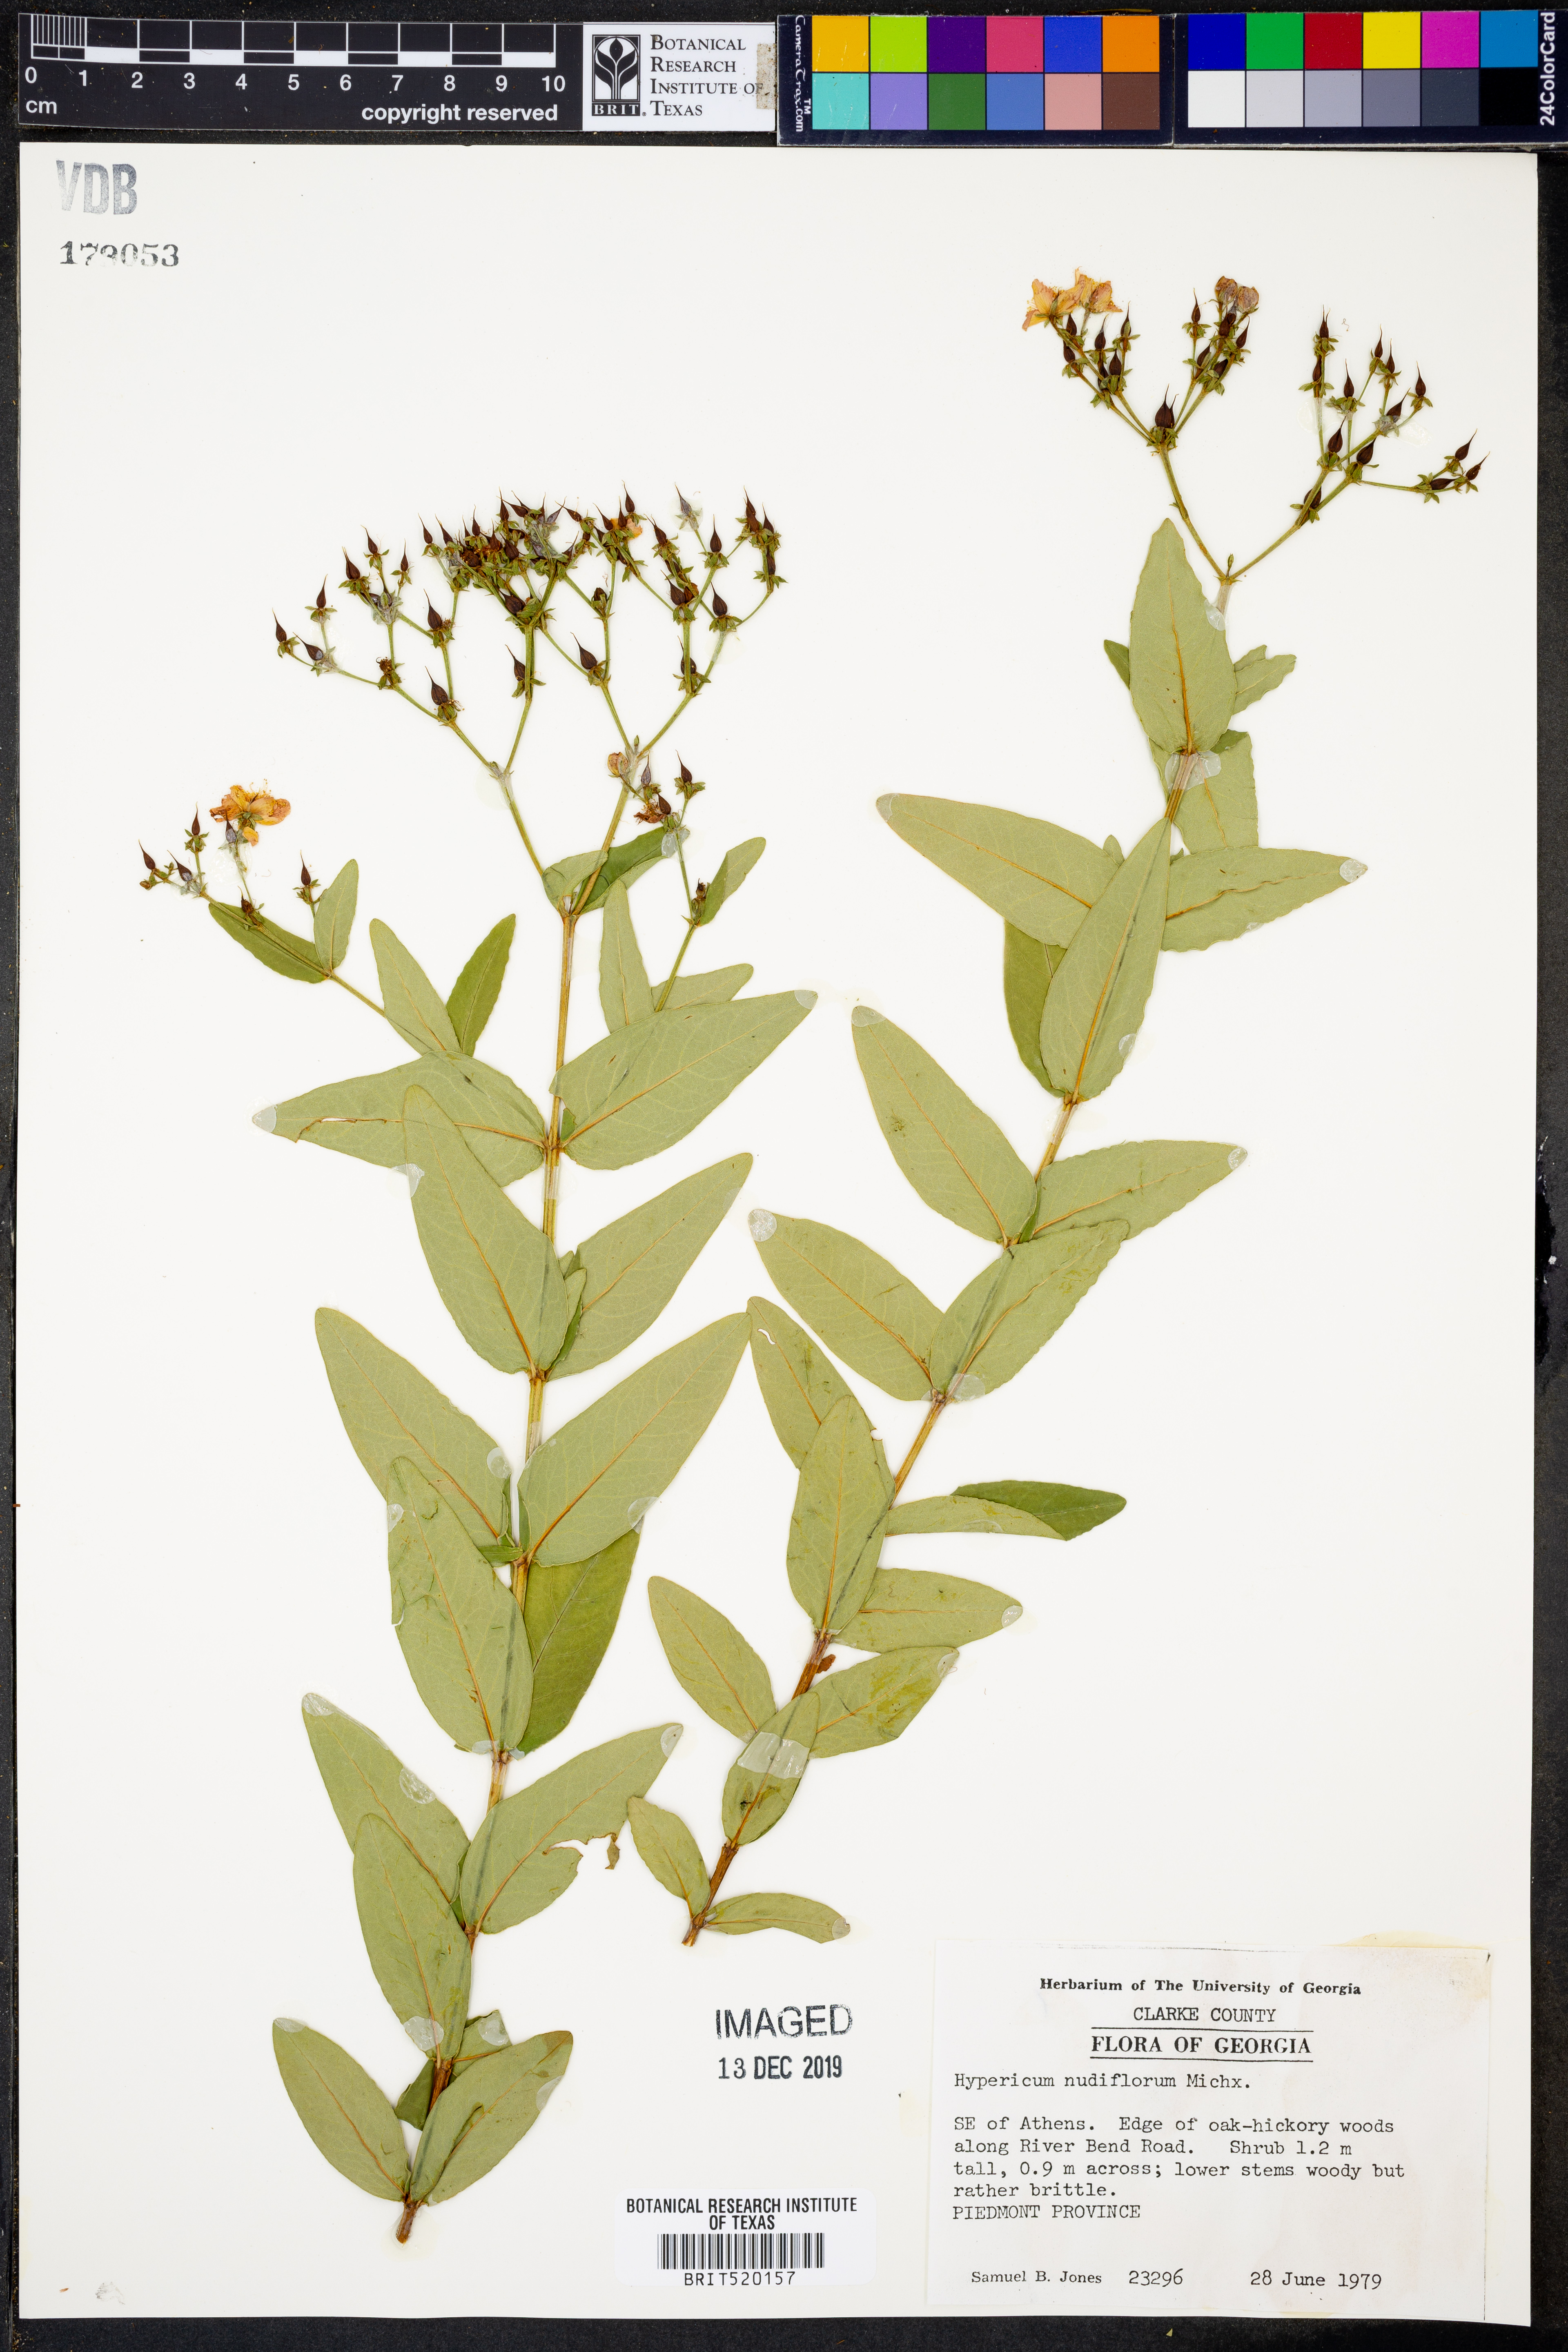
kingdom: Plantae
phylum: Tracheophyta
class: Magnoliopsida
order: Malpighiales
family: Hypericaceae
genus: Hypericum
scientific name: Hypericum nudiflorum
